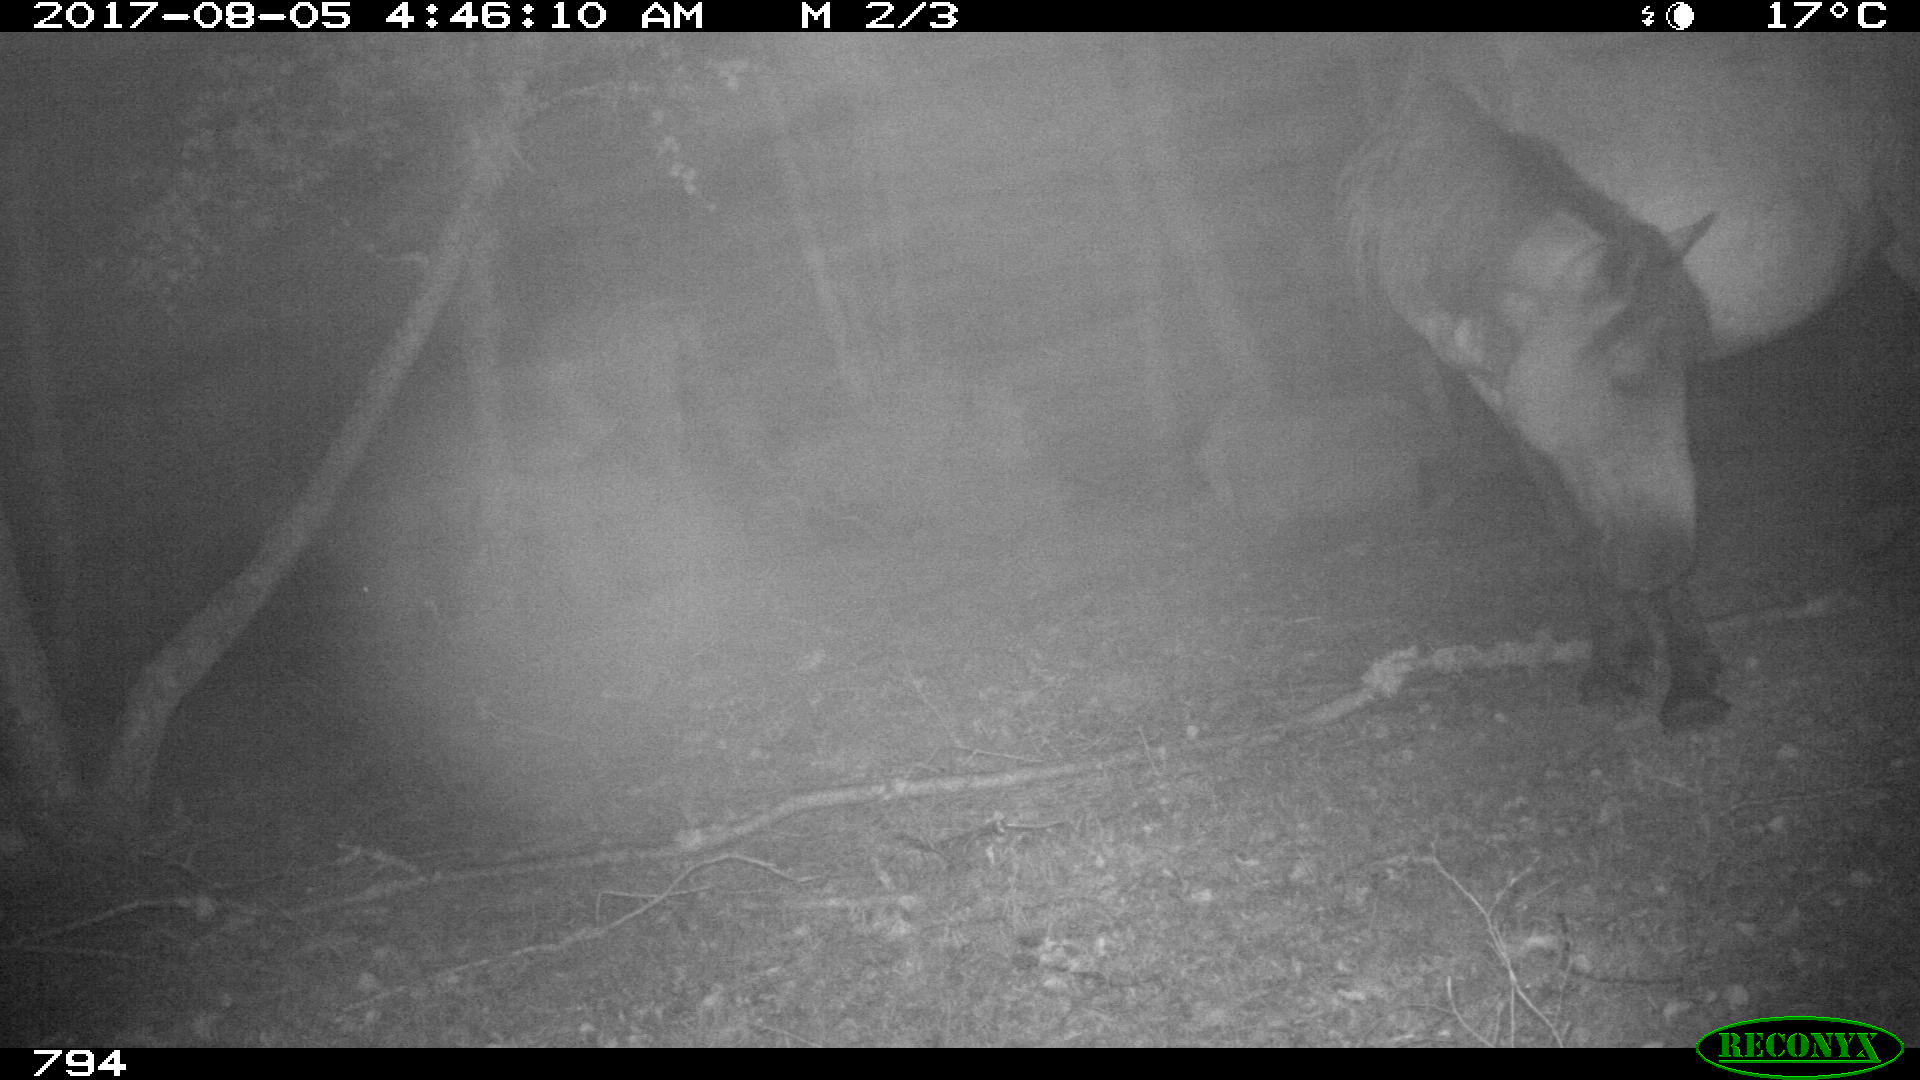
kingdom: Animalia
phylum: Chordata
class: Mammalia
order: Perissodactyla
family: Equidae
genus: Equus
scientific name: Equus caballus
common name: Horse
